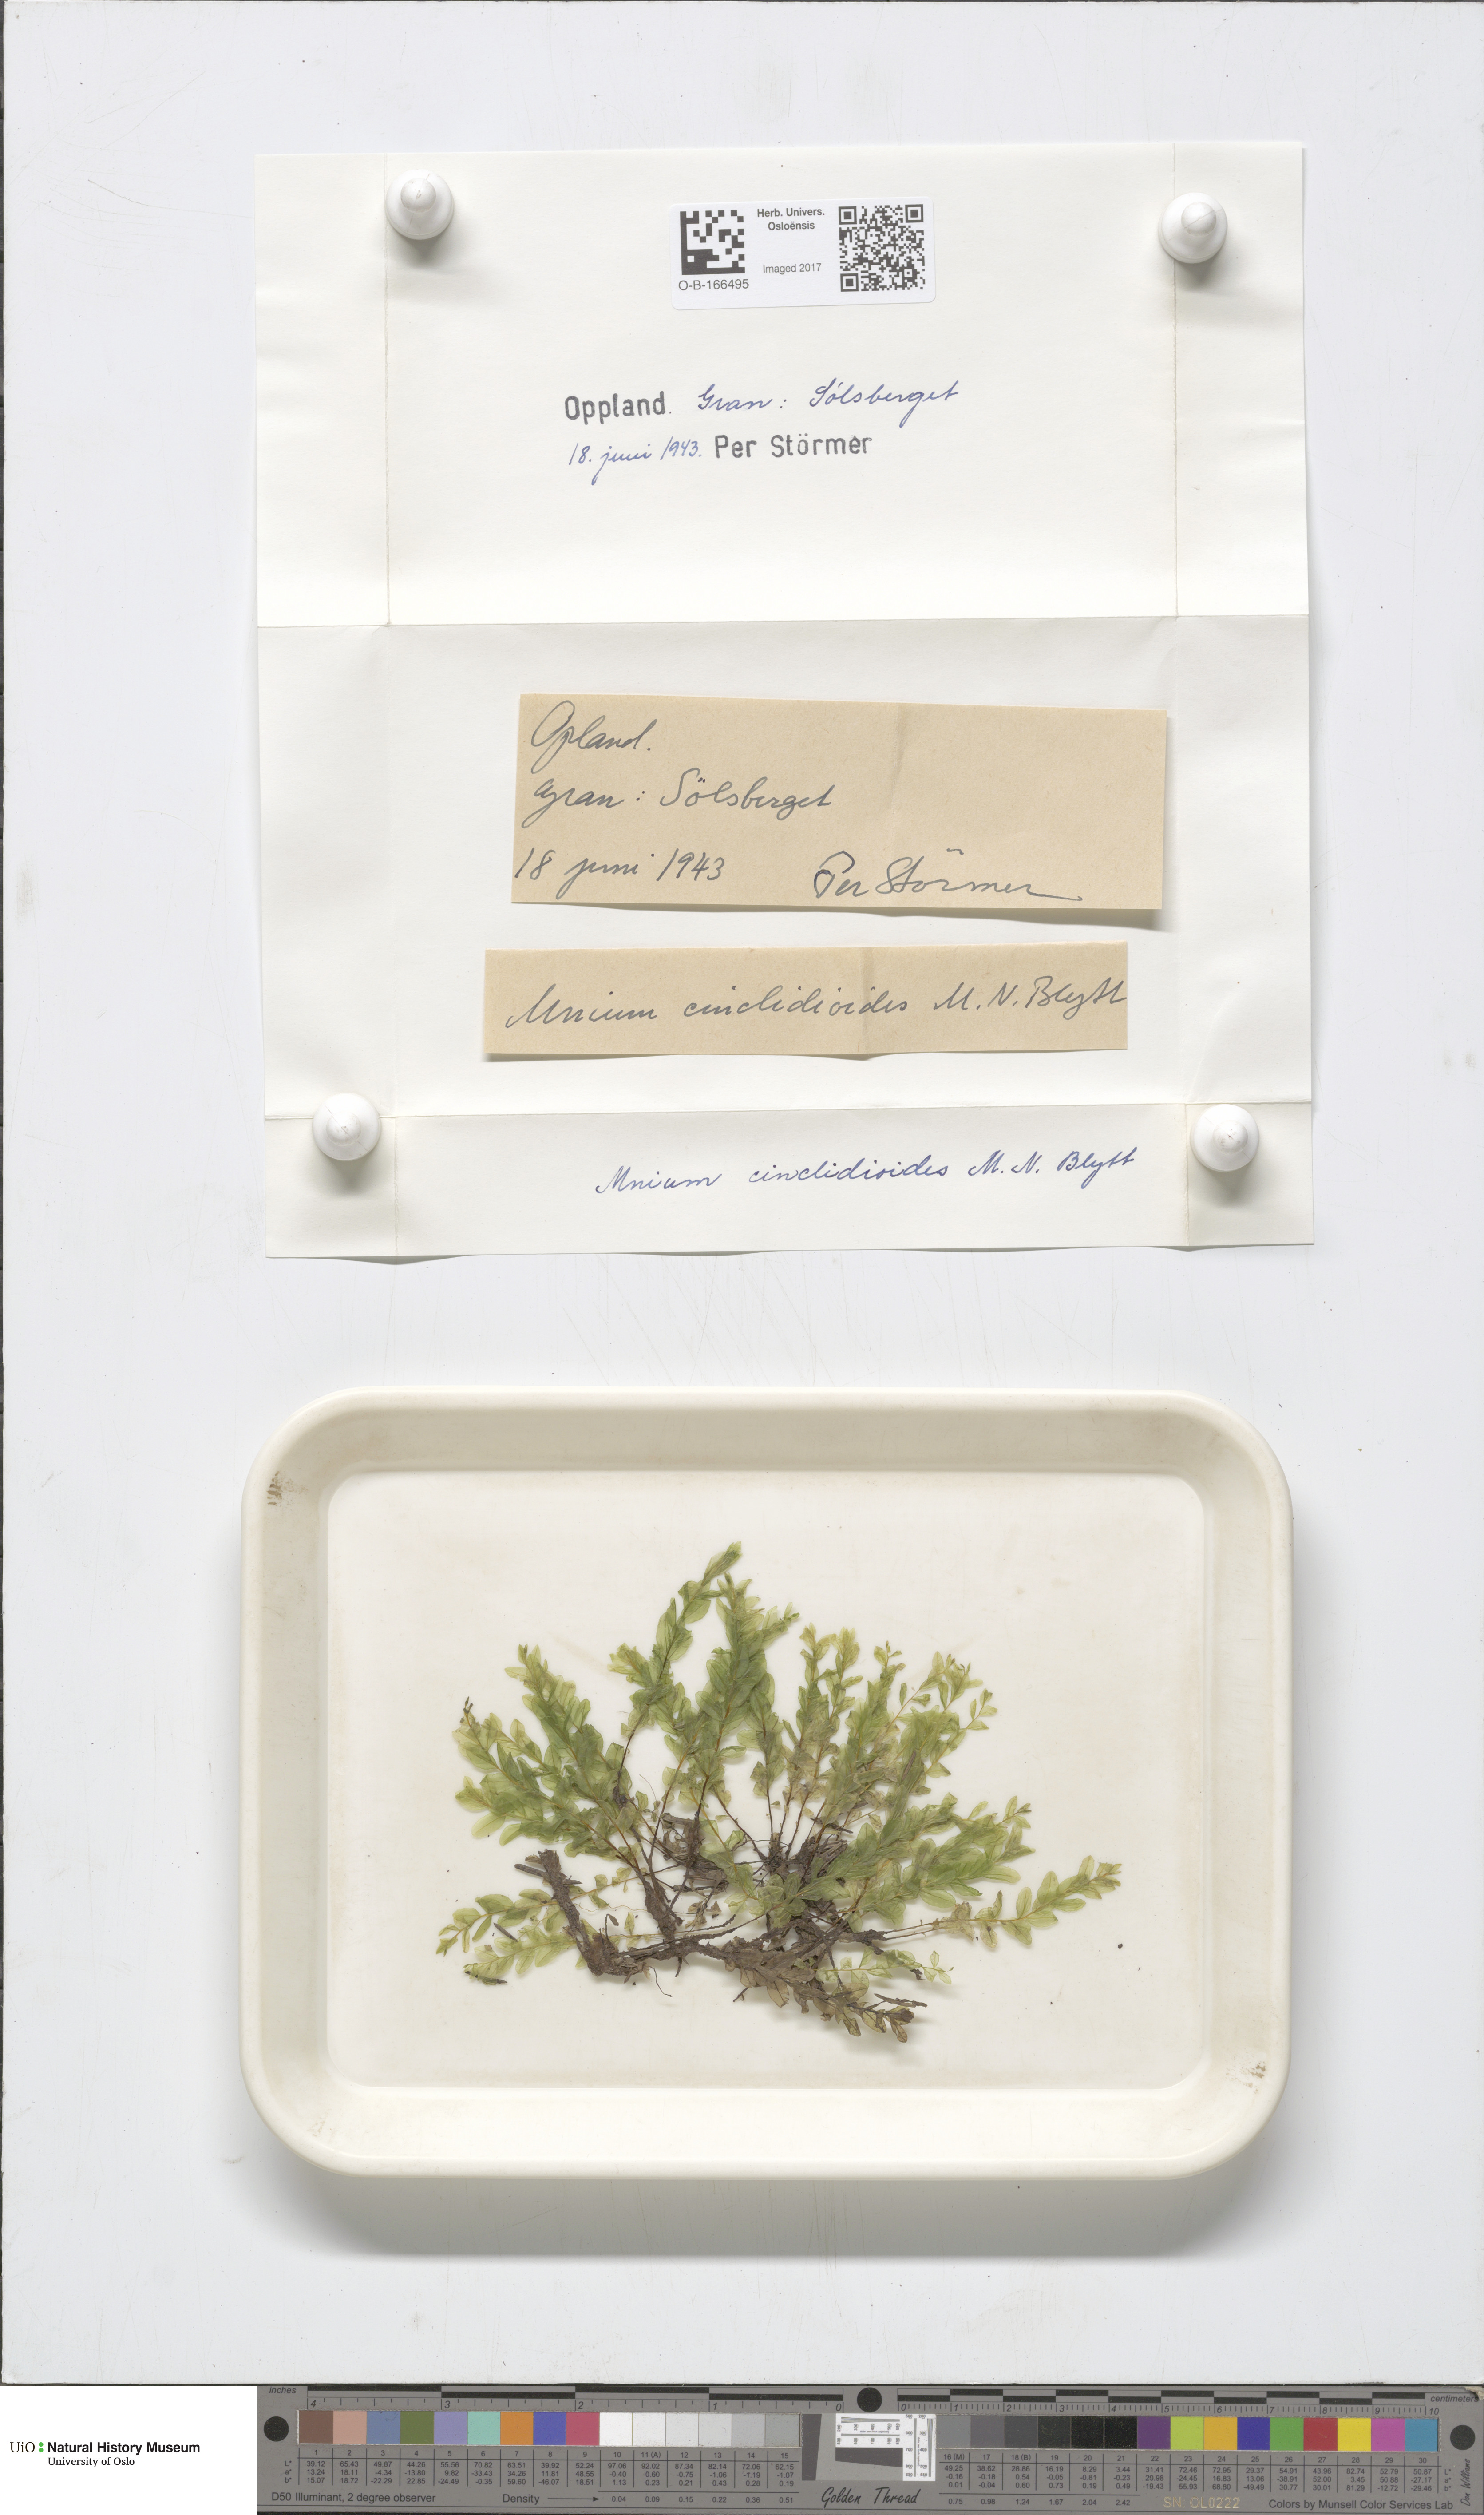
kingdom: Plantae
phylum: Bryophyta
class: Bryopsida
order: Bryales
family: Mniaceae
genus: Pseudobryum
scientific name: Pseudobryum cinclidioides
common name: River thyme moss
